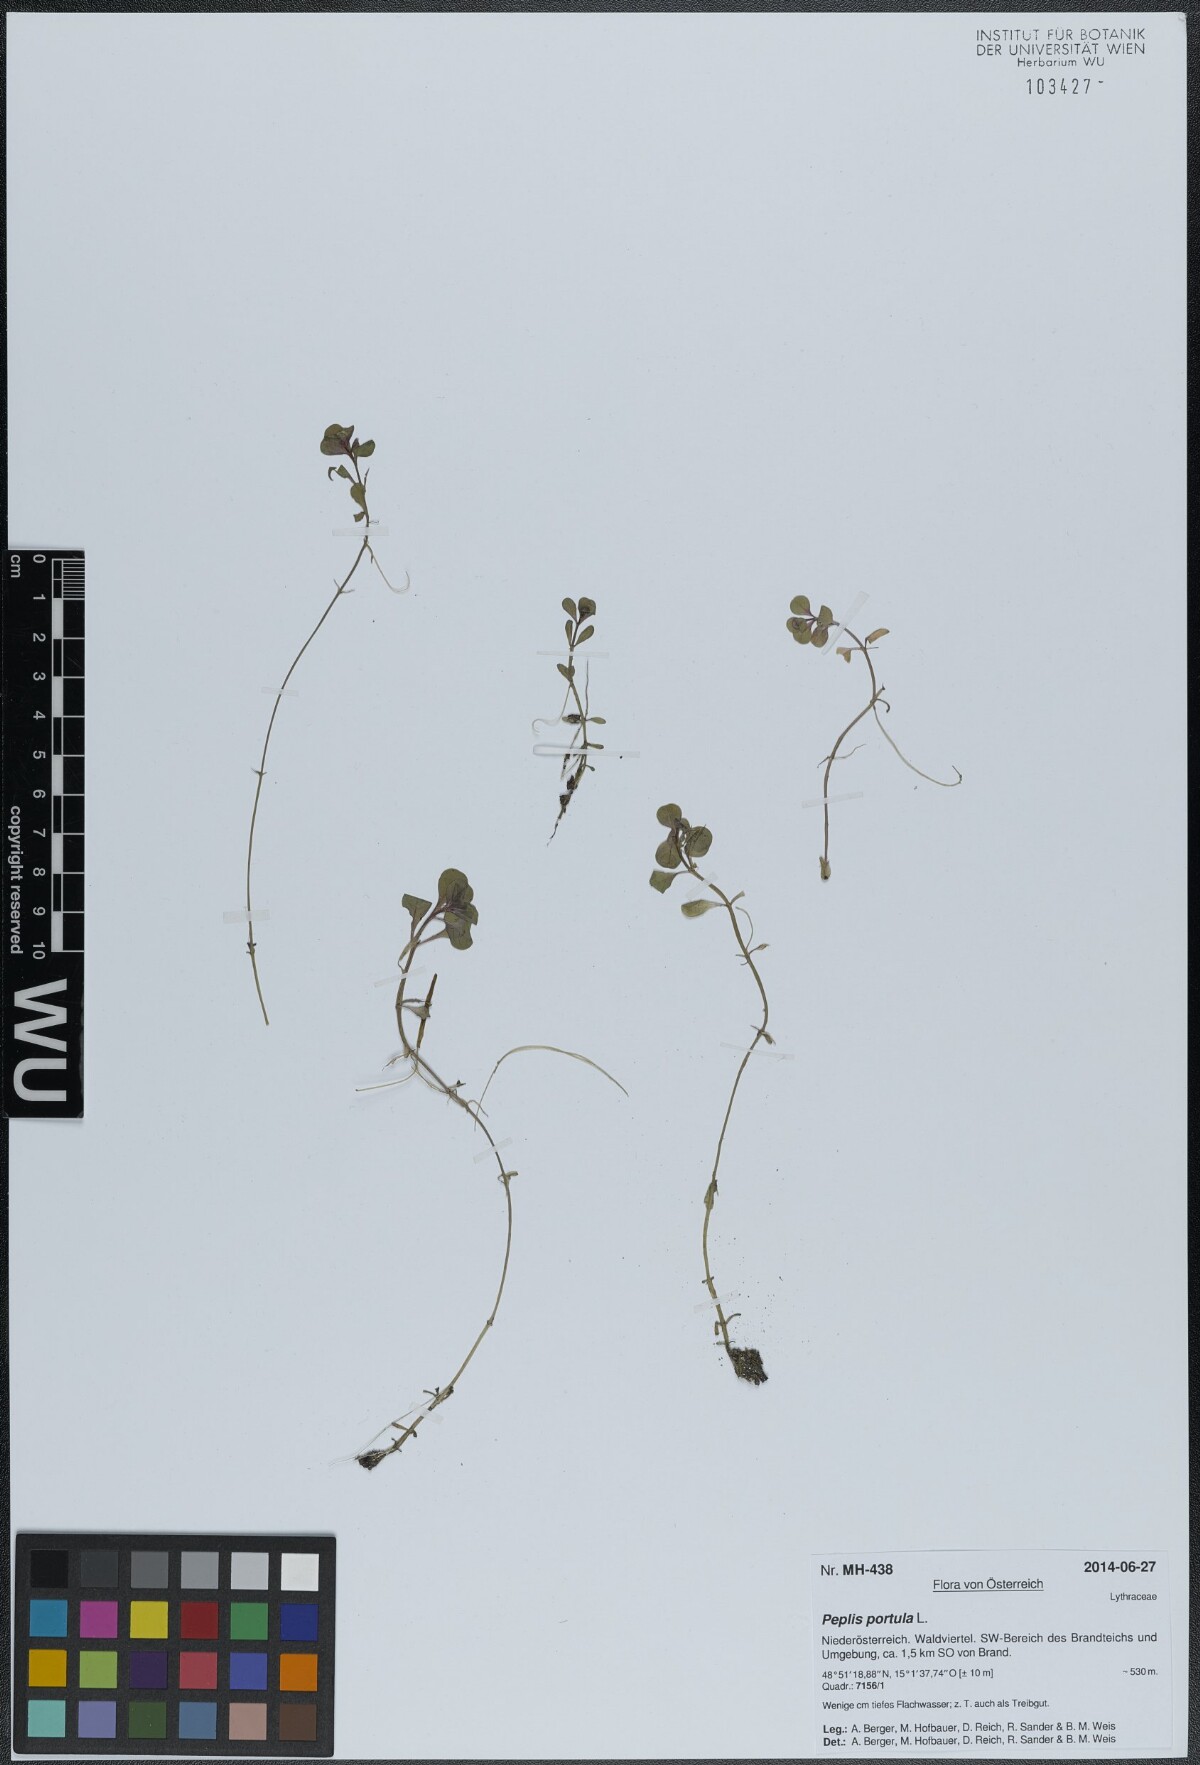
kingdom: Plantae
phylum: Tracheophyta
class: Magnoliopsida
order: Myrtales
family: Lythraceae
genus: Lythrum
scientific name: Lythrum portula
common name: Water purslane
